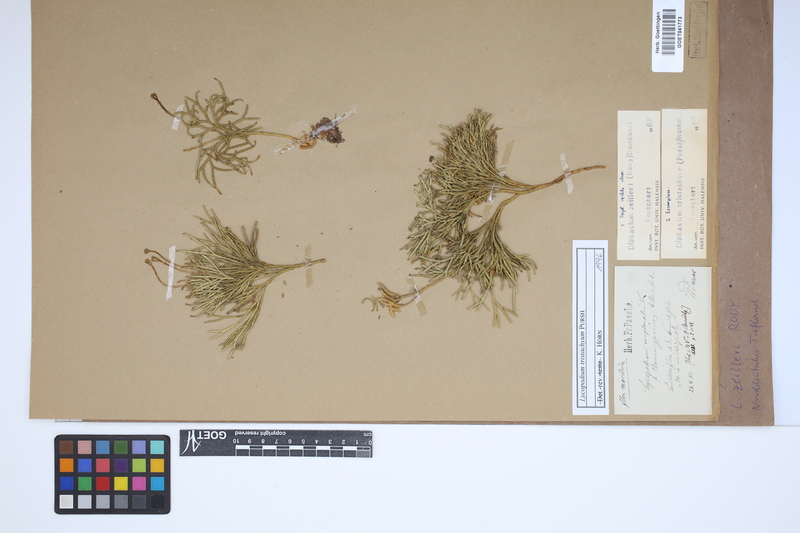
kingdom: Plantae
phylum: Tracheophyta
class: Lycopodiopsida
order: Lycopodiales
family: Lycopodiaceae
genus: Diphasiastrum
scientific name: Diphasiastrum zeilleri
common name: Zeiller's clubmoss
